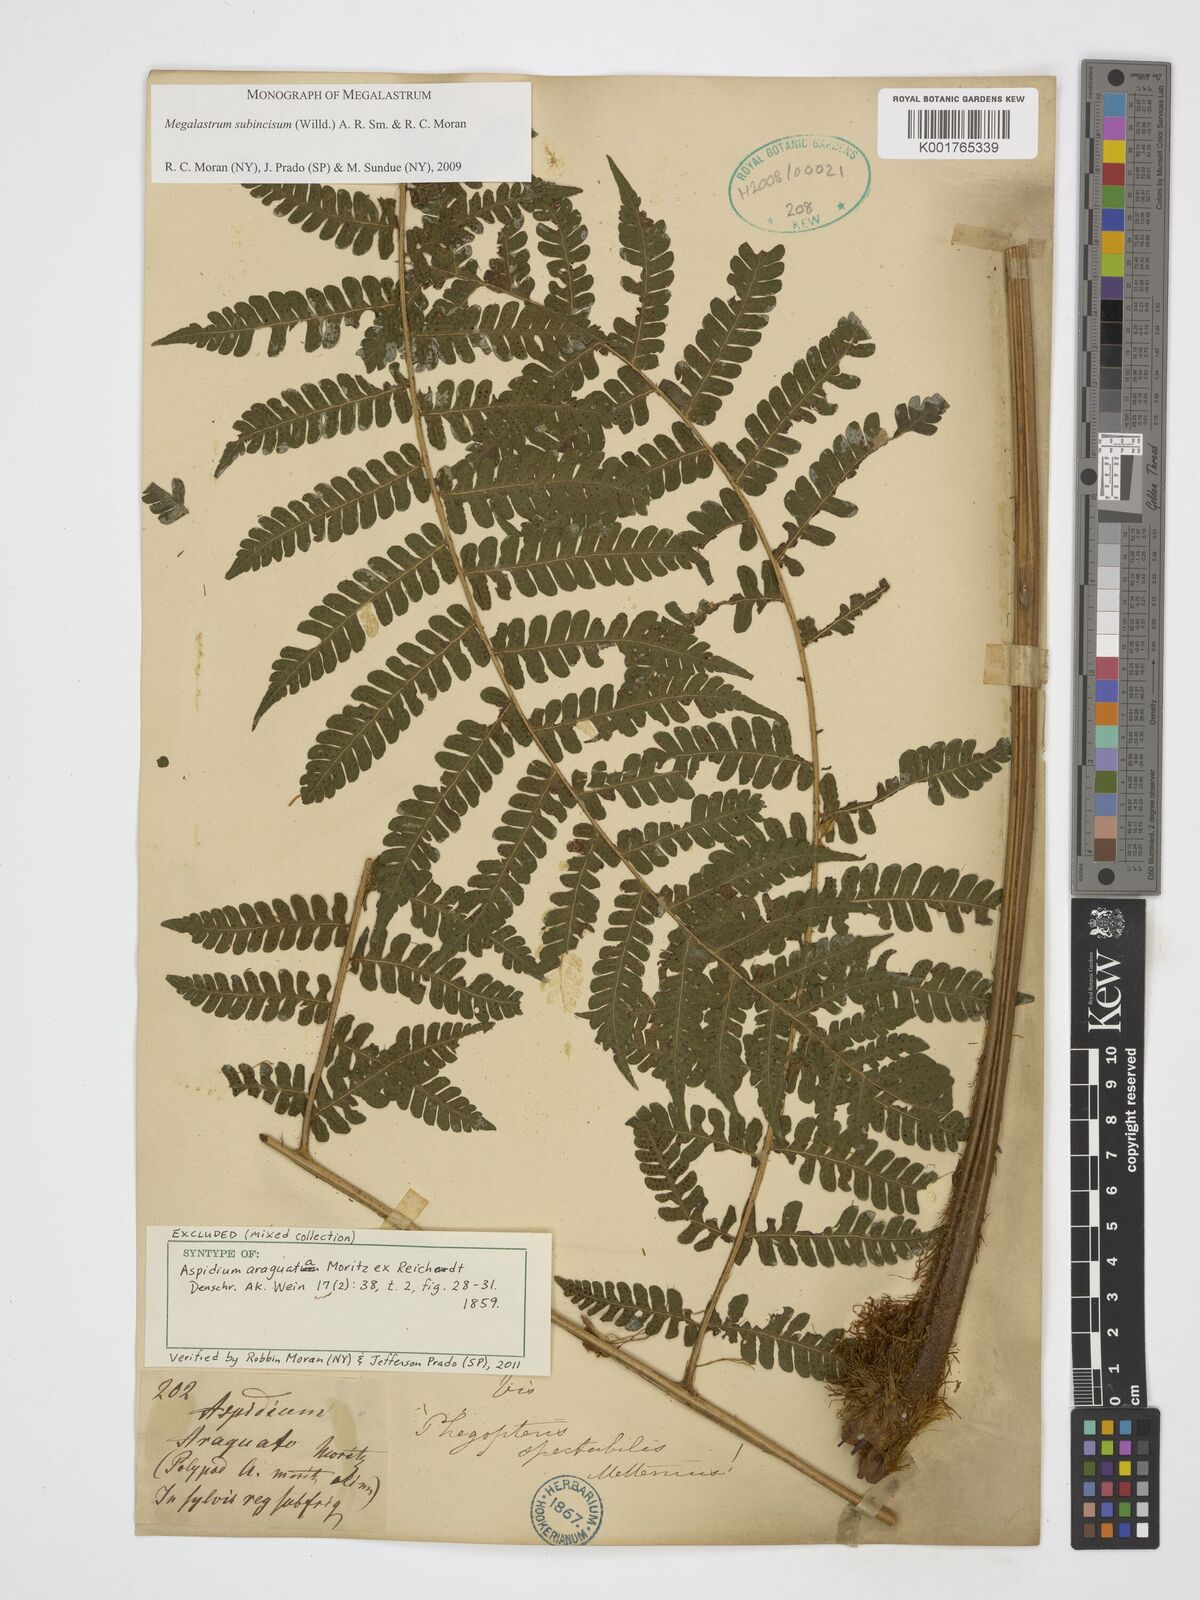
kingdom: Plantae
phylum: Tracheophyta
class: Polypodiopsida
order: Polypodiales
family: Dryopteridaceae
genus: Megalastrum
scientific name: Megalastrum subincisum
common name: Jagleaf junglefern
